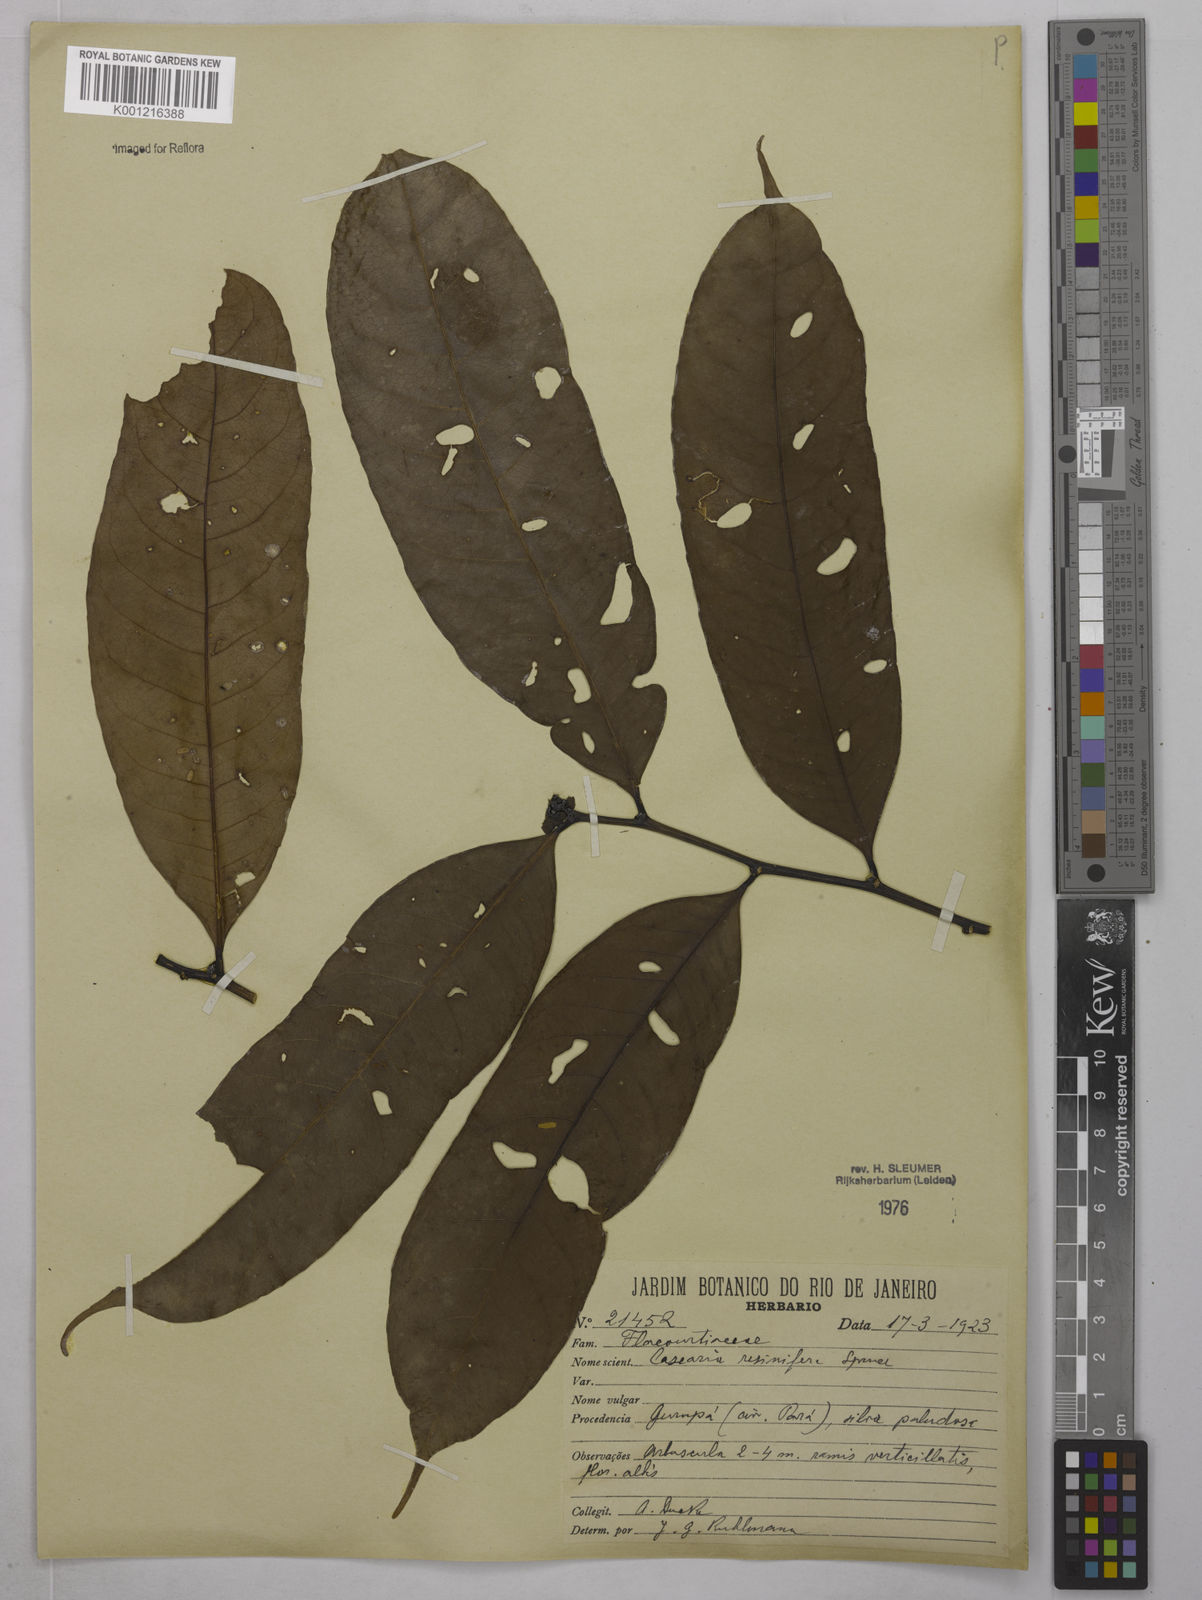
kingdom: Plantae
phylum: Tracheophyta
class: Magnoliopsida
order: Malpighiales
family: Salicaceae
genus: Casearia
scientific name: Casearia resinifera
